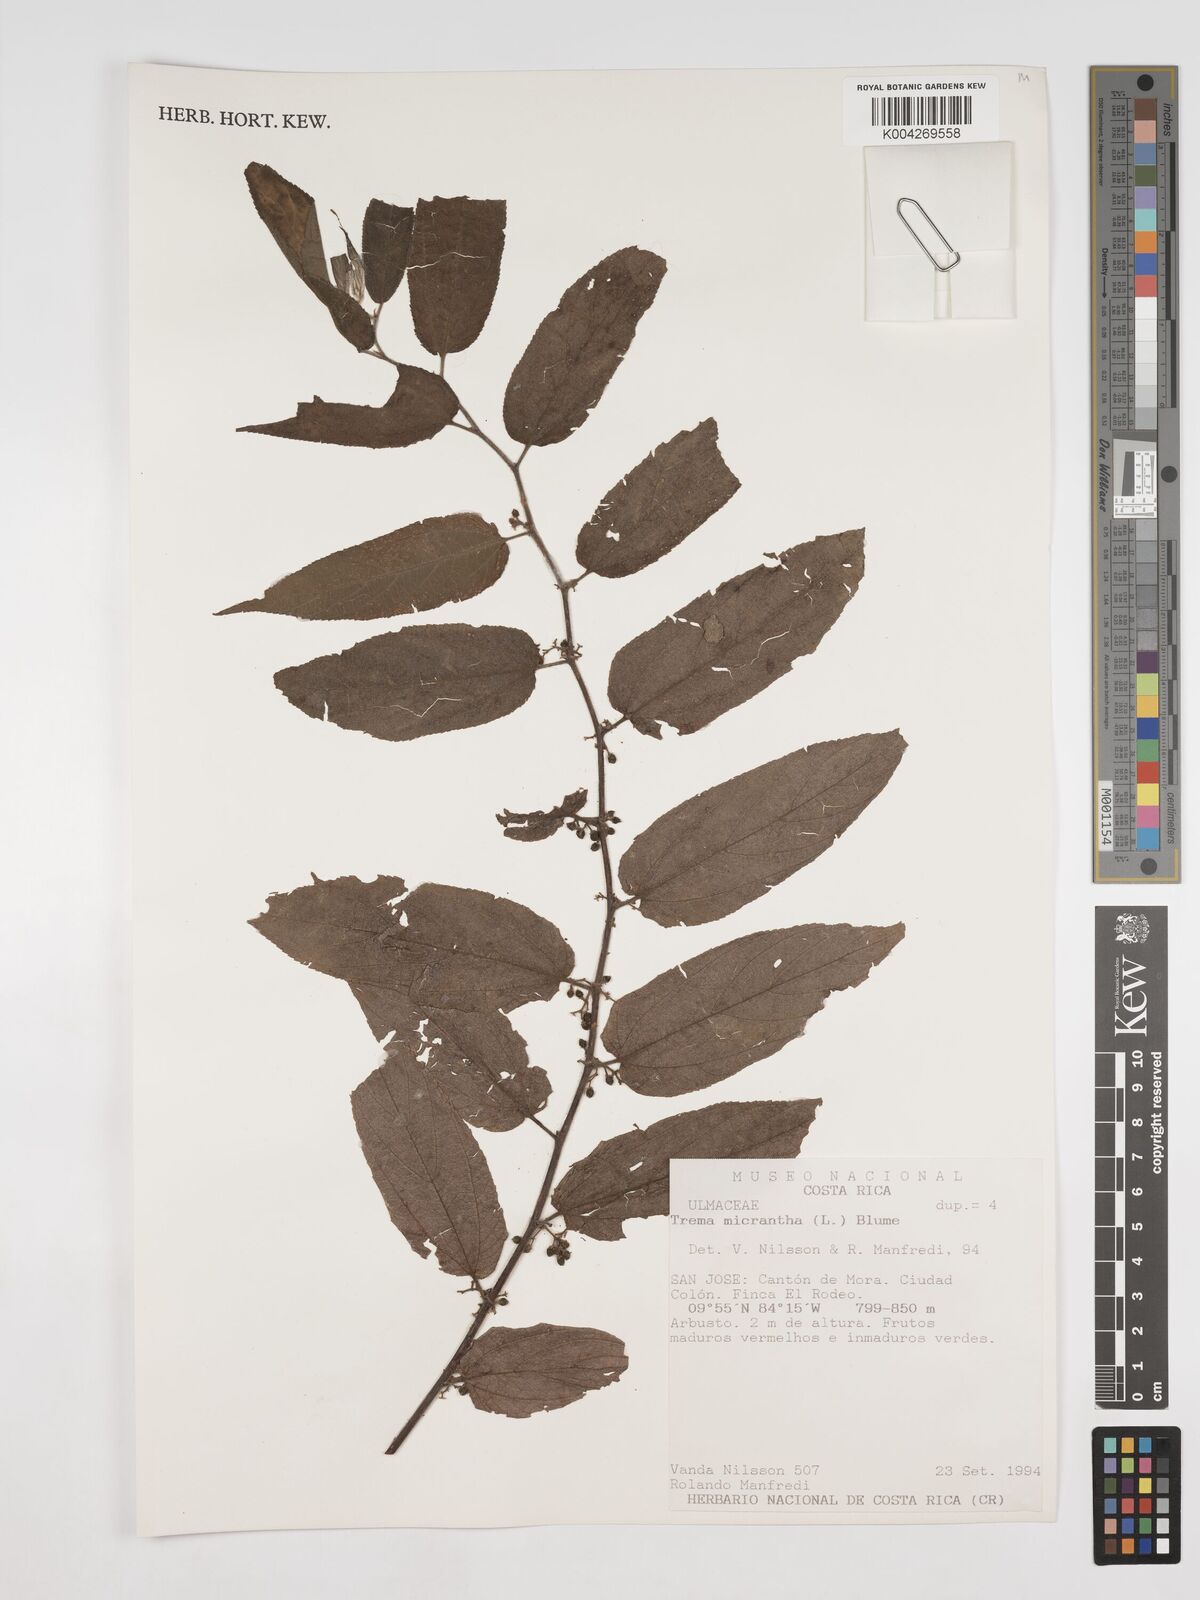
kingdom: Plantae
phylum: Tracheophyta
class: Magnoliopsida
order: Rosales
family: Cannabaceae
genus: Trema
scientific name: Trema micranthum
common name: Jamaican nettletree
